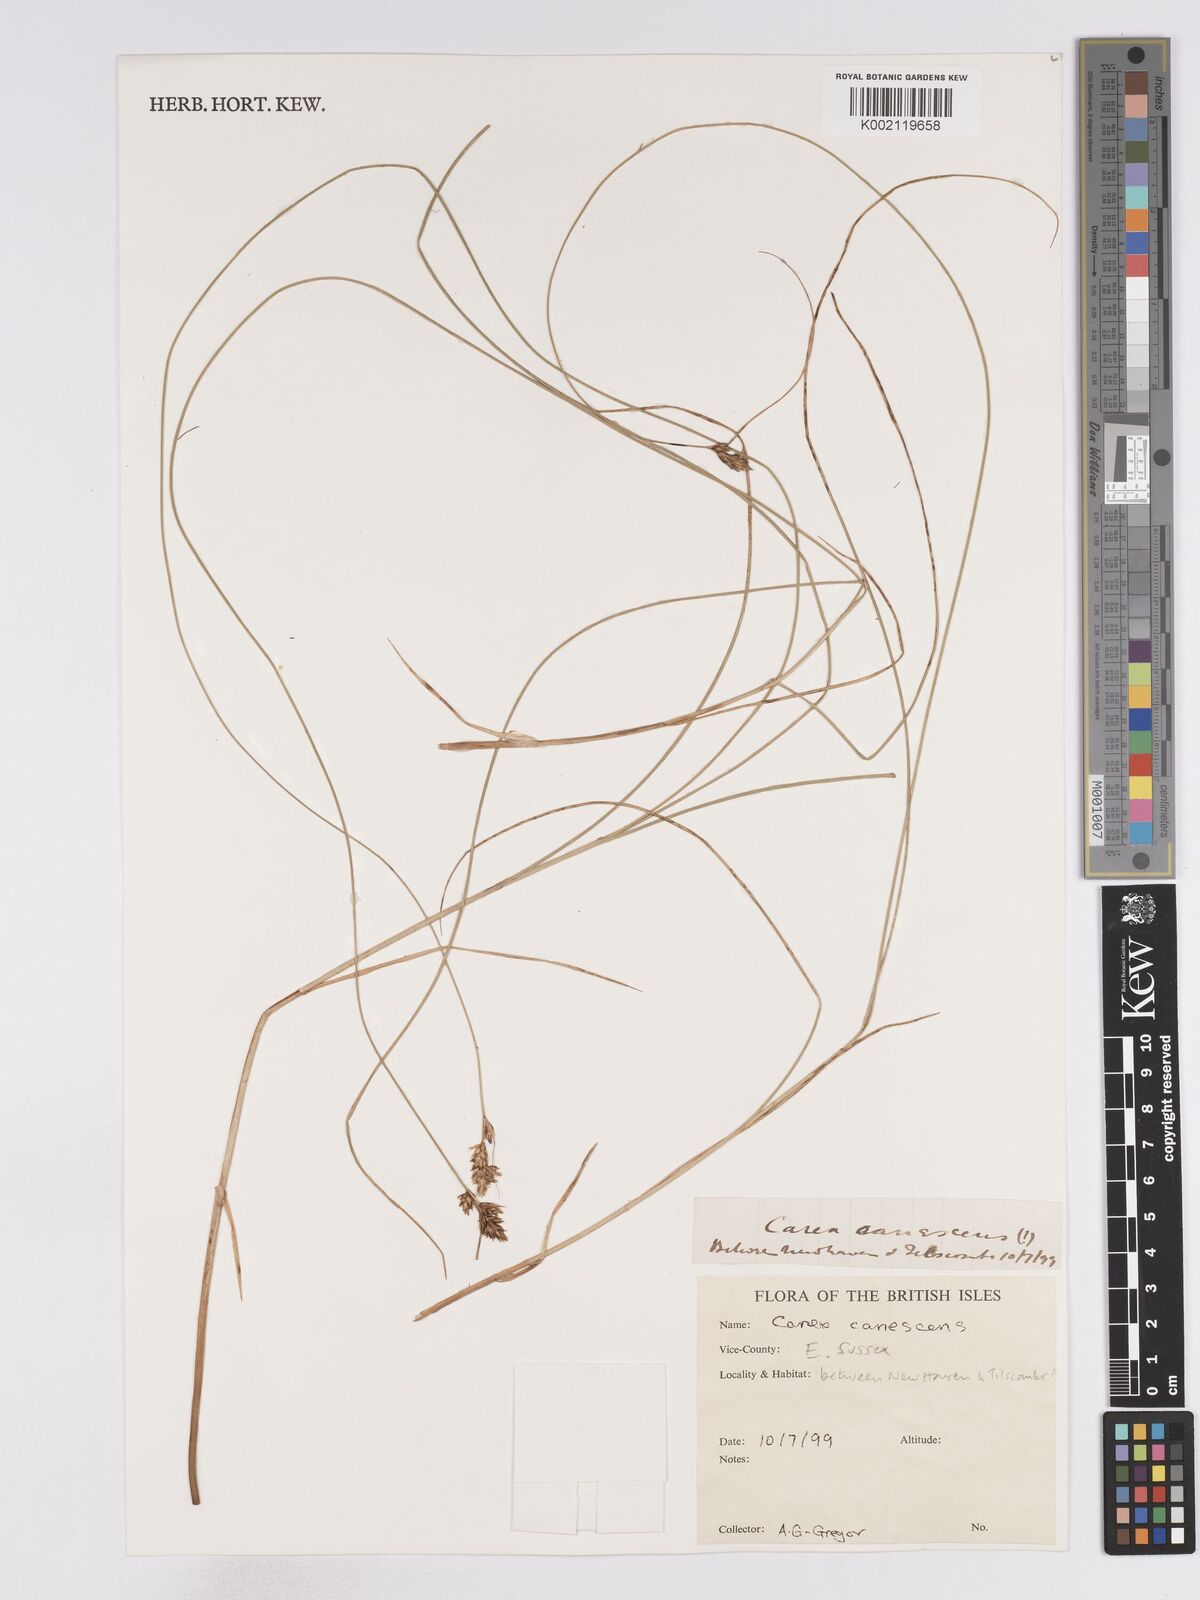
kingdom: Plantae
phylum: Tracheophyta
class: Liliopsida
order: Poales
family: Cyperaceae
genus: Carex
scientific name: Carex curta
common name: White sedge
